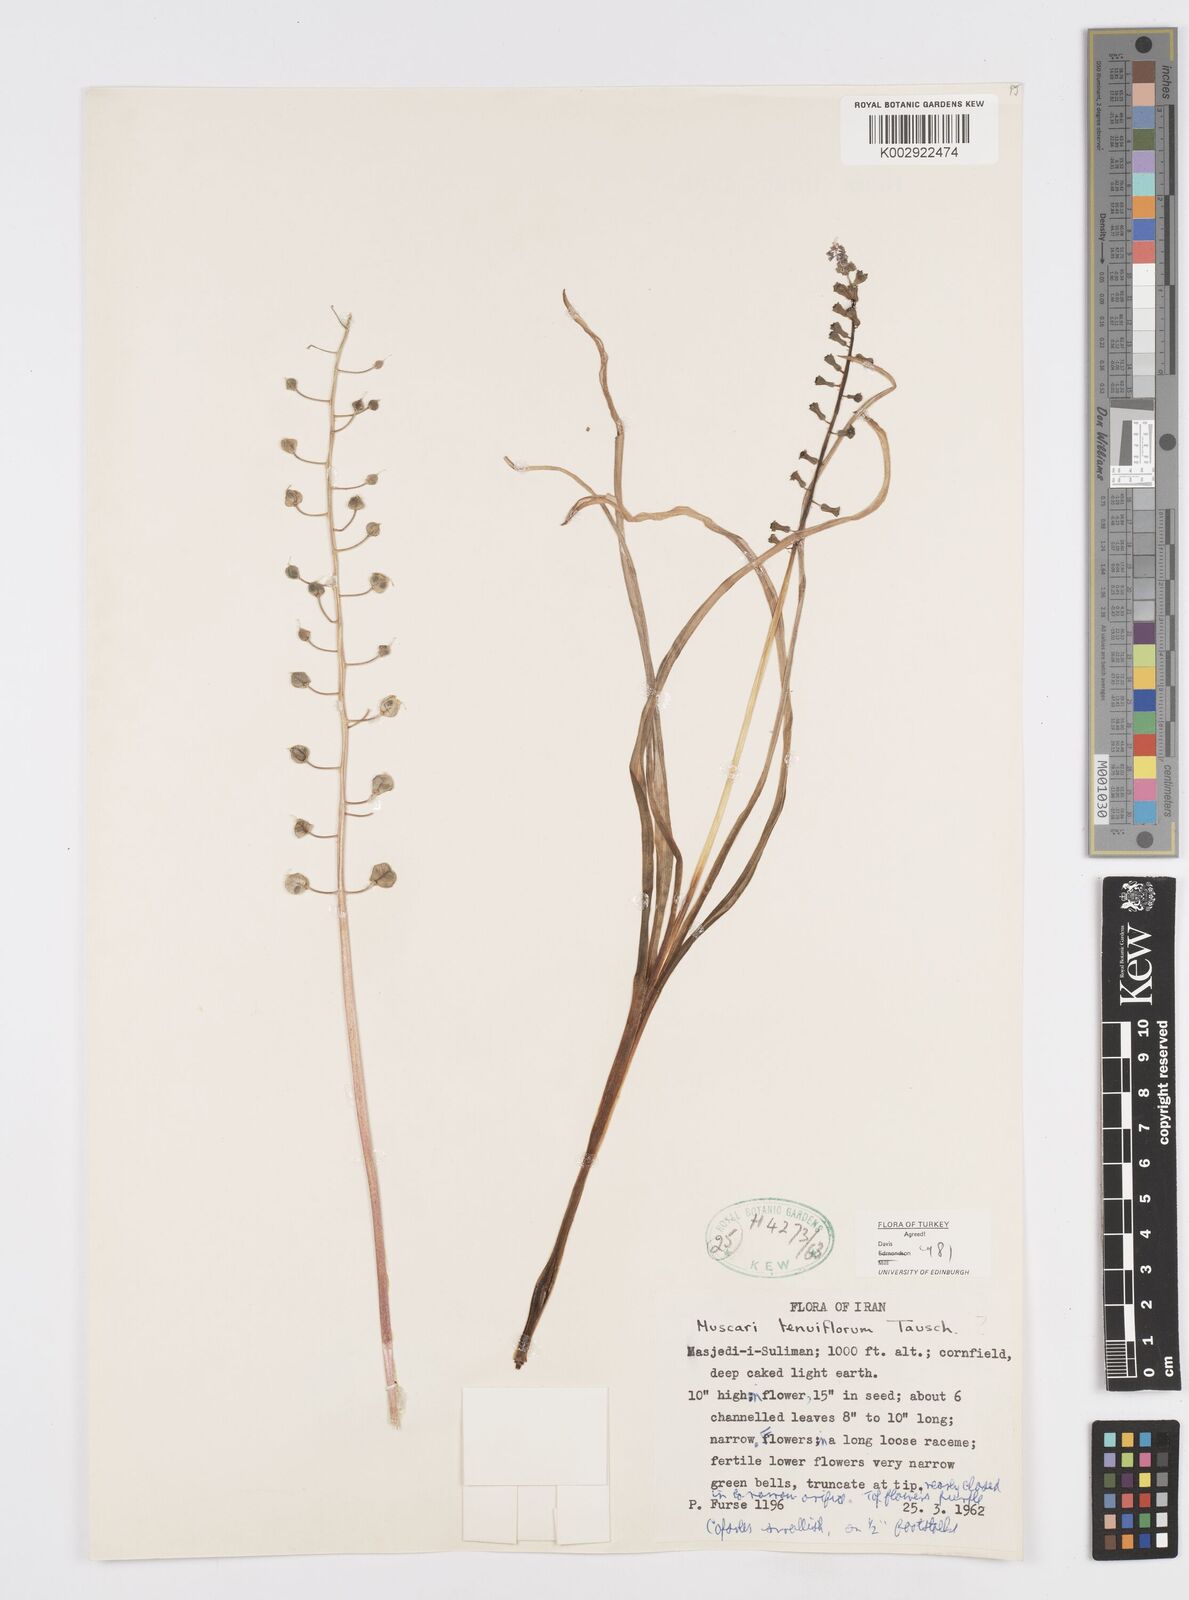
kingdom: Plantae
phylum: Tracheophyta
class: Liliopsida
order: Asparagales
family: Asparagaceae
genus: Muscari
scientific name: Muscari tenuiflorum
